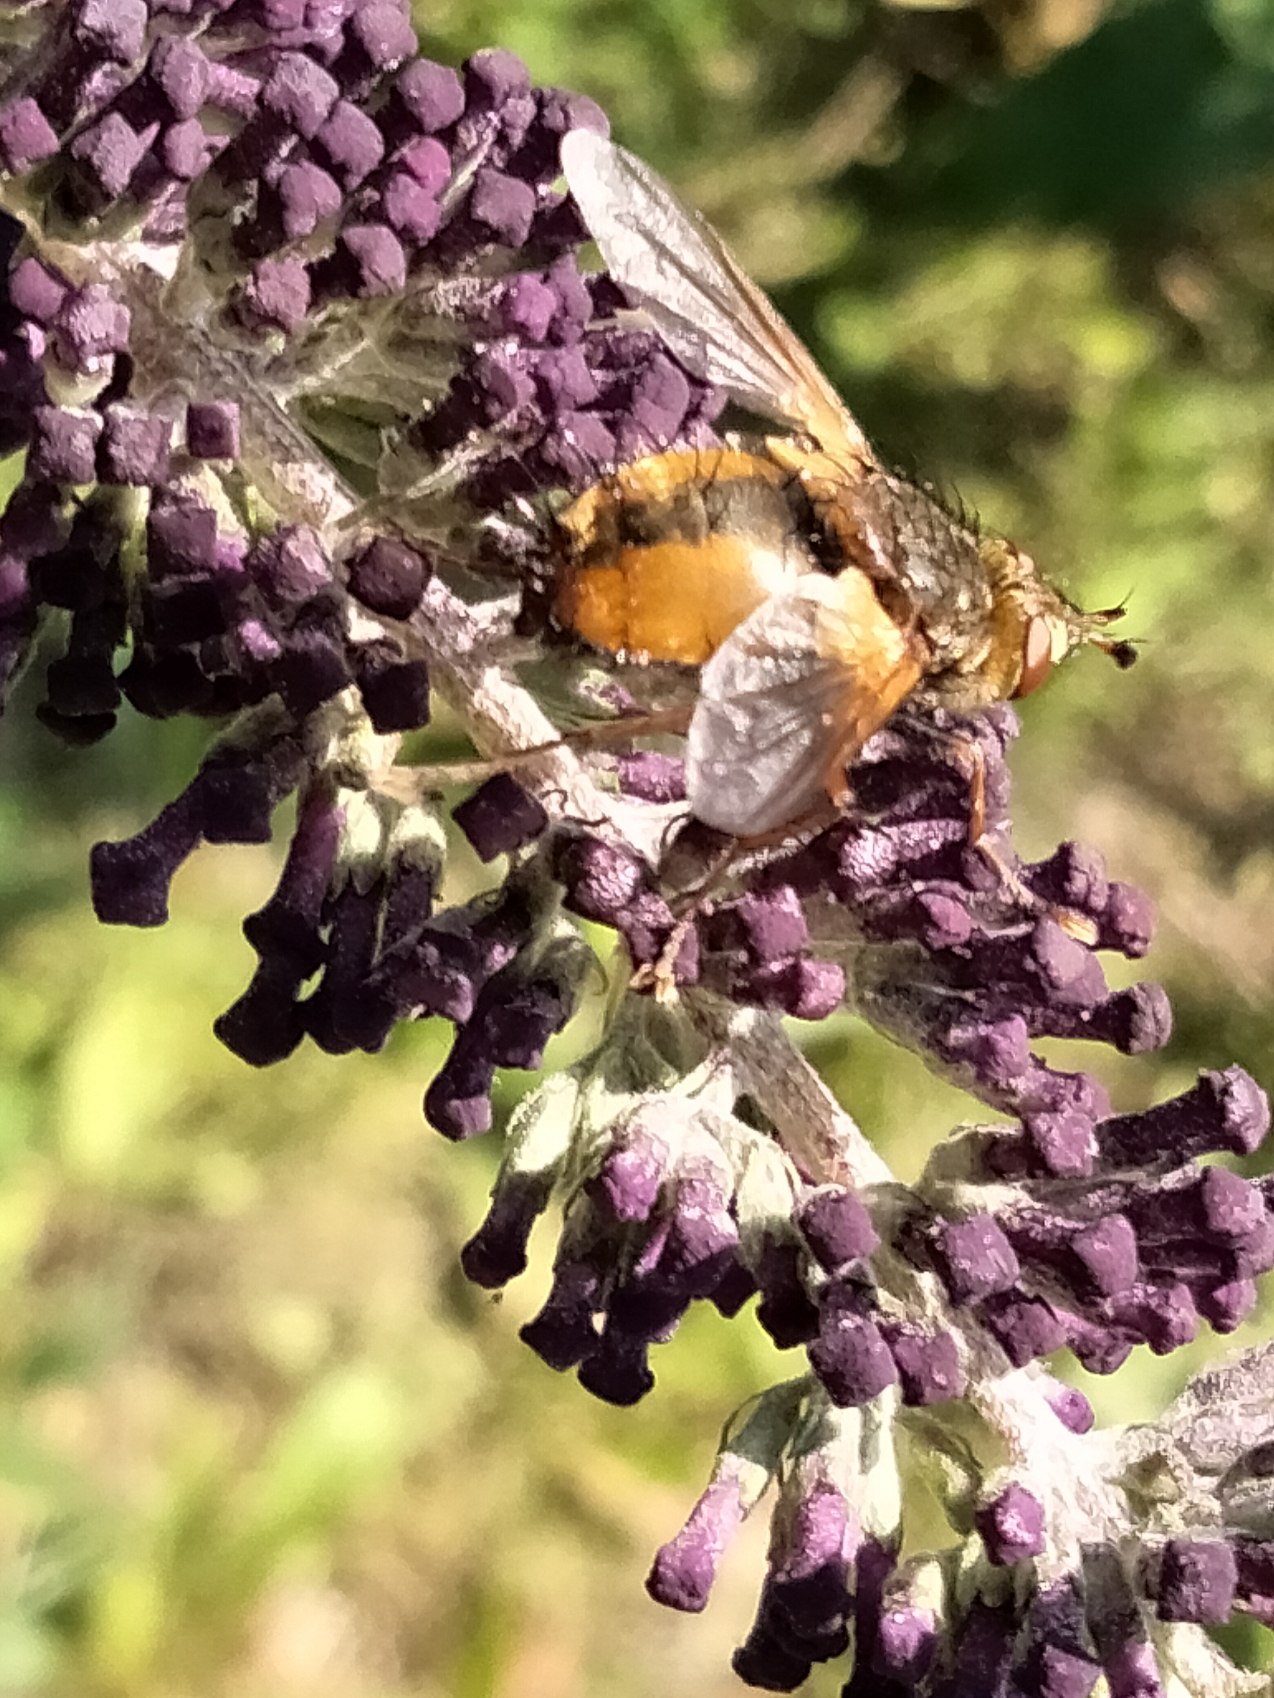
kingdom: Animalia
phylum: Arthropoda
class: Insecta
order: Diptera
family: Tachinidae
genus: Tachina
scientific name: Tachina fera
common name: Mellemfluen oskar
